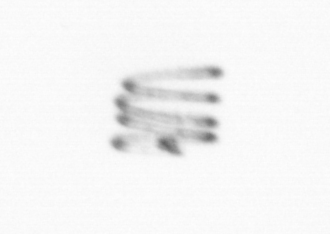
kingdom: Chromista
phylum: Ochrophyta
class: Bacillariophyceae
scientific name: Bacillariophyceae
